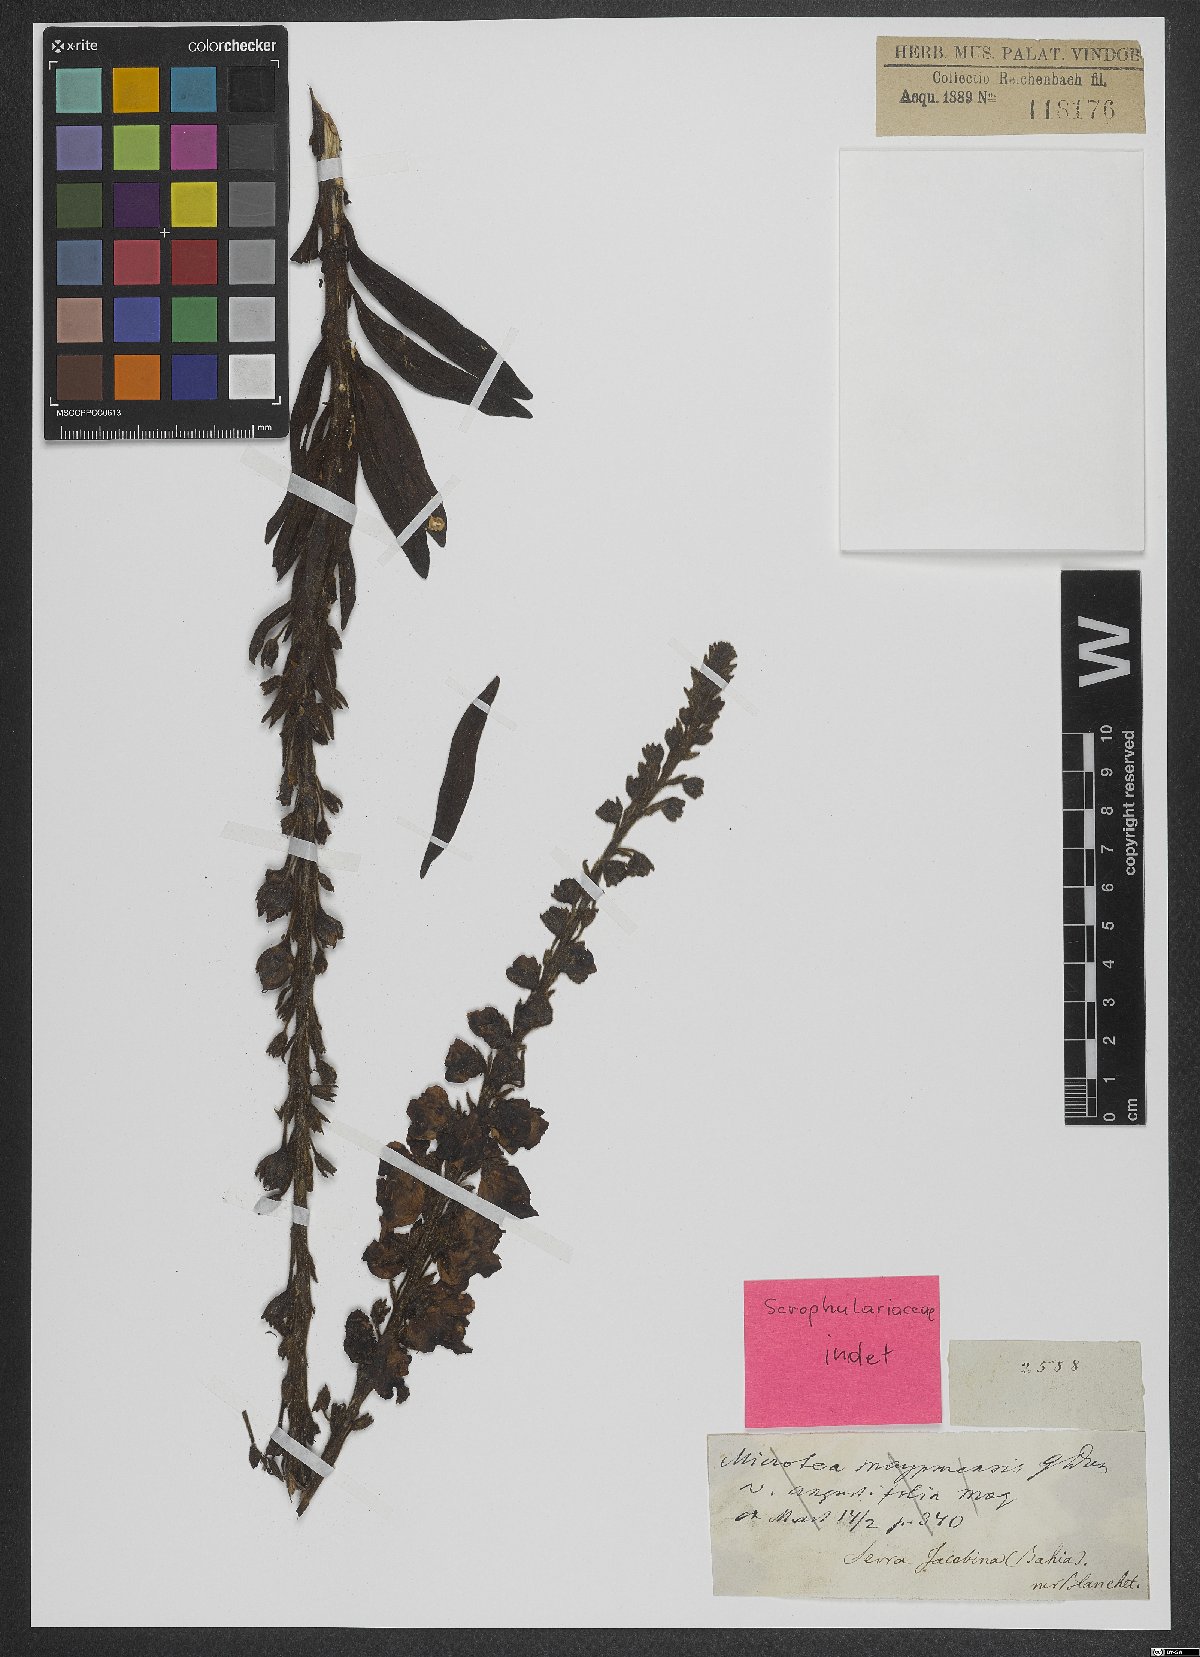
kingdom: Plantae
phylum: Tracheophyta
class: Magnoliopsida
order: Lamiales
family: Scrophulariaceae
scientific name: Scrophulariaceae
